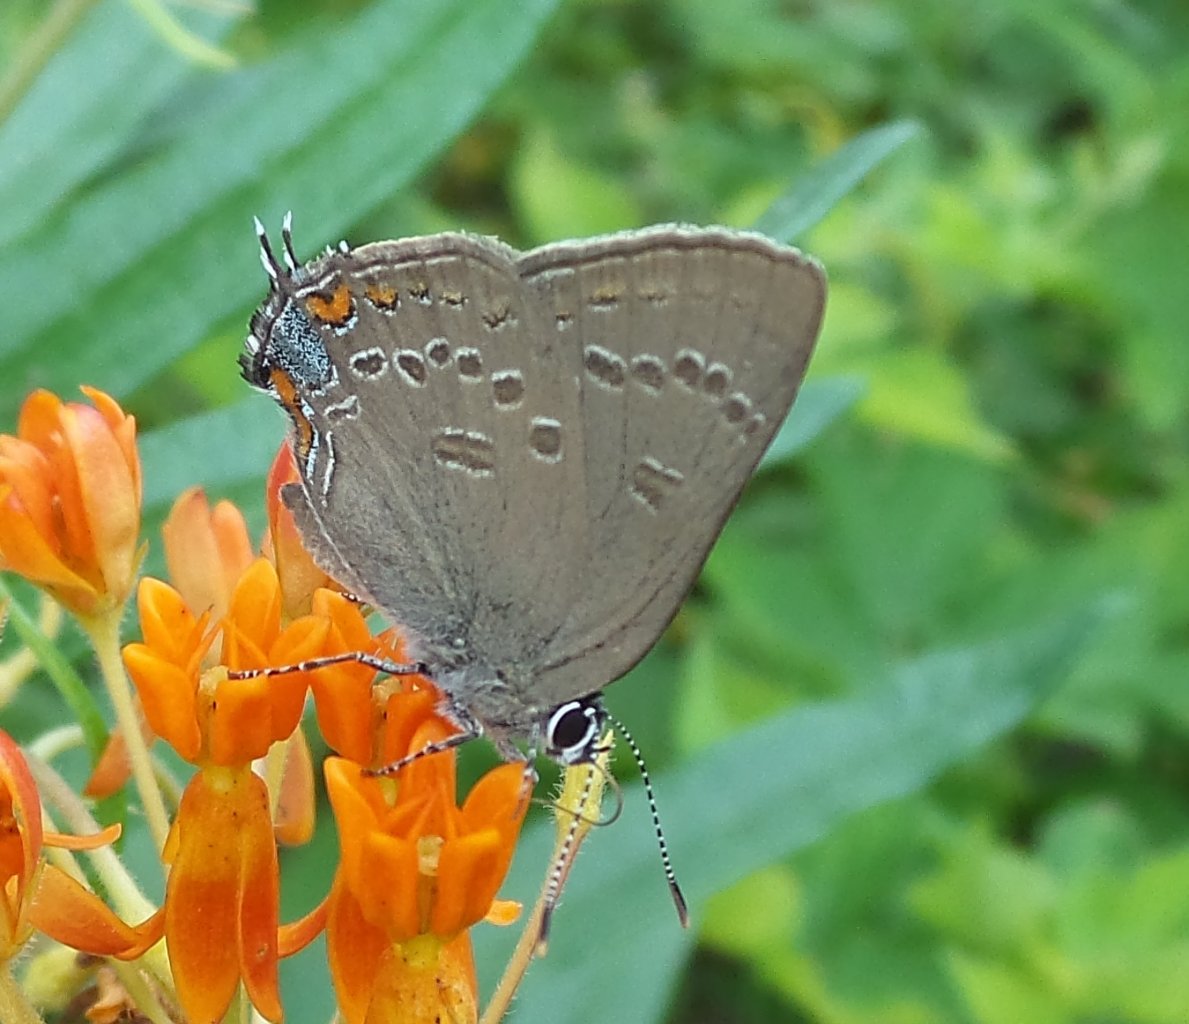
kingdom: Animalia
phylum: Arthropoda
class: Insecta
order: Lepidoptera
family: Lycaenidae
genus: Satyrium
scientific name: Satyrium edwardsii
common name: Edwards' Hairstreak
